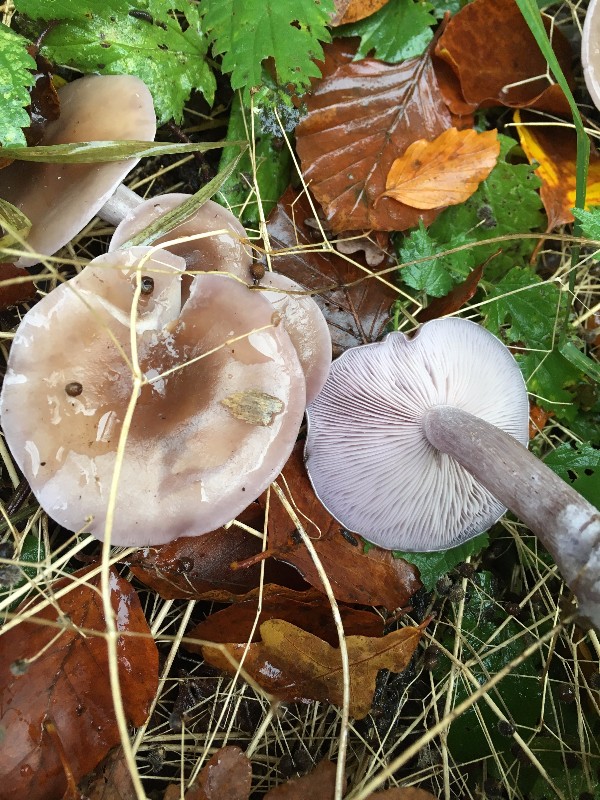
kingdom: Fungi
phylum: Basidiomycota
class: Agaricomycetes
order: Agaricales
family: Tricholomataceae
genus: Lepista
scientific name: Lepista nuda
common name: violet hekseringshat
